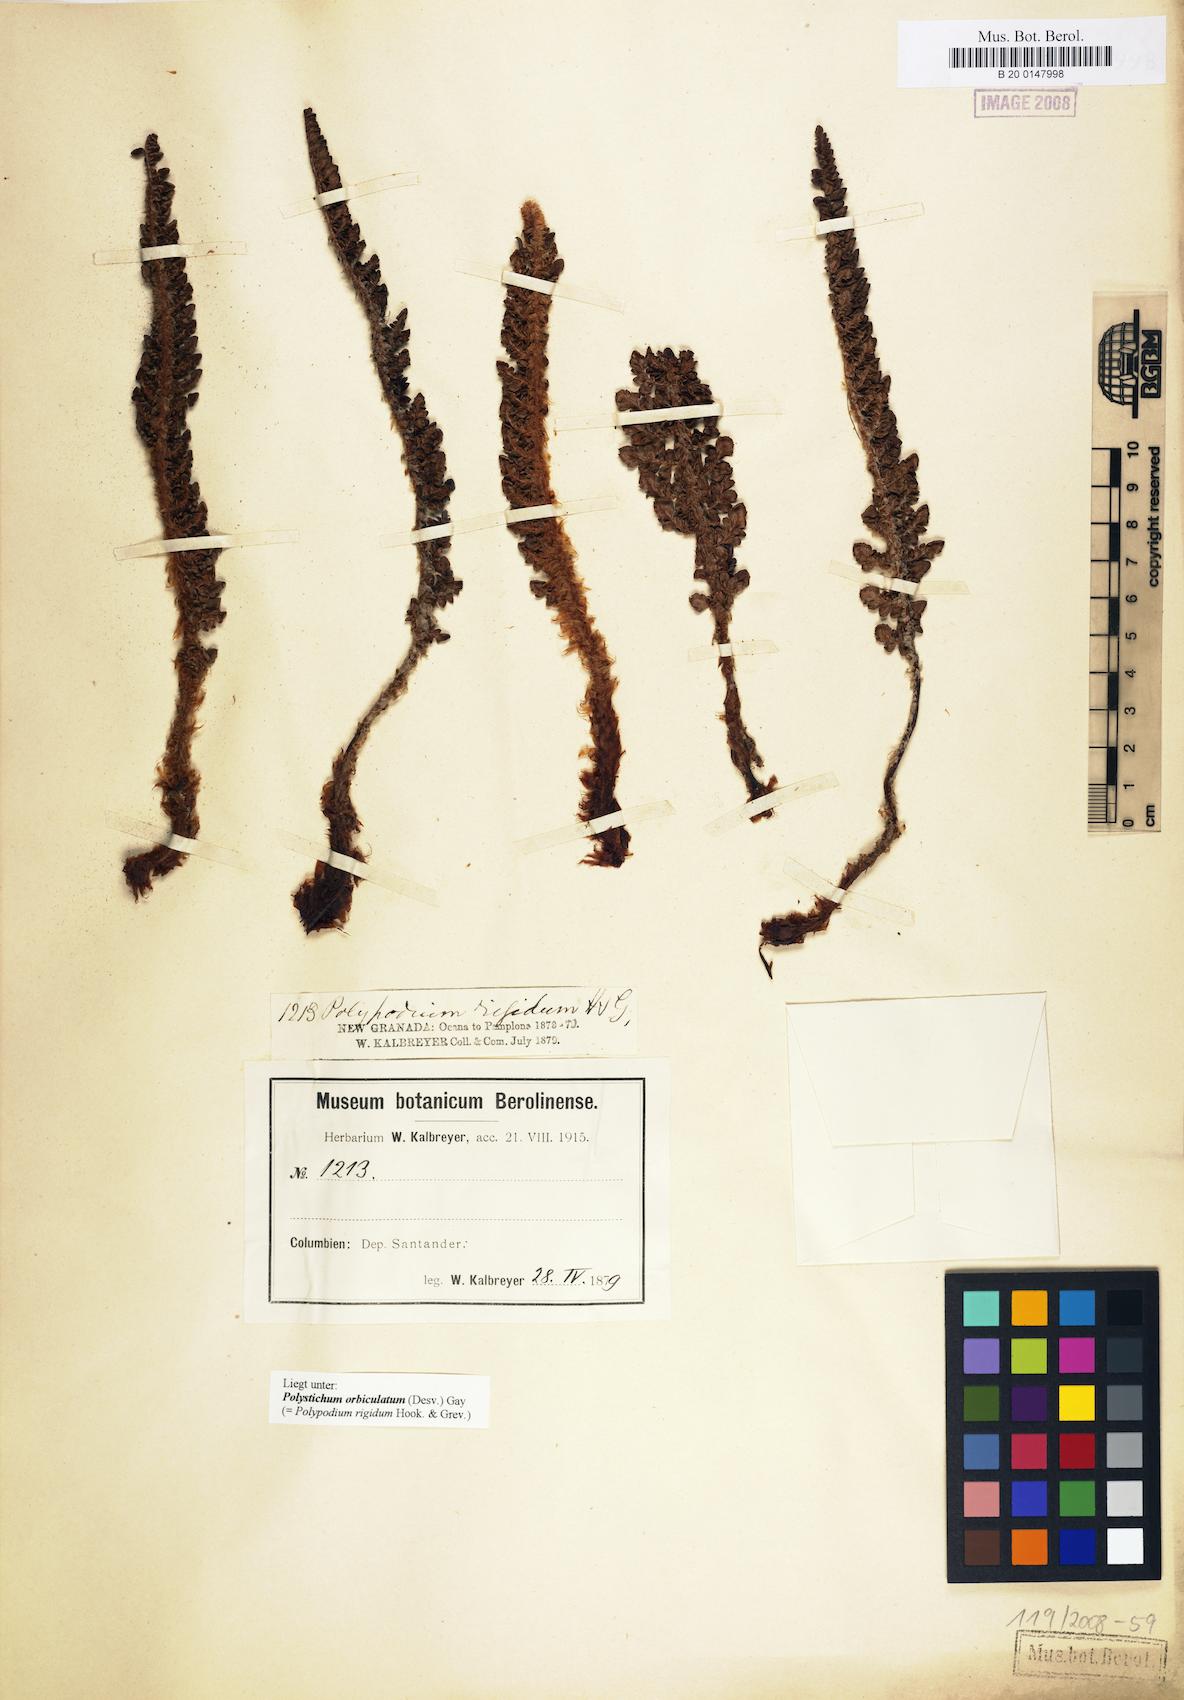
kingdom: Plantae
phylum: Tracheophyta
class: Polypodiopsida
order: Polypodiales
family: Dryopteridaceae
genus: Polystichum
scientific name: Polystichum orbiculatum
